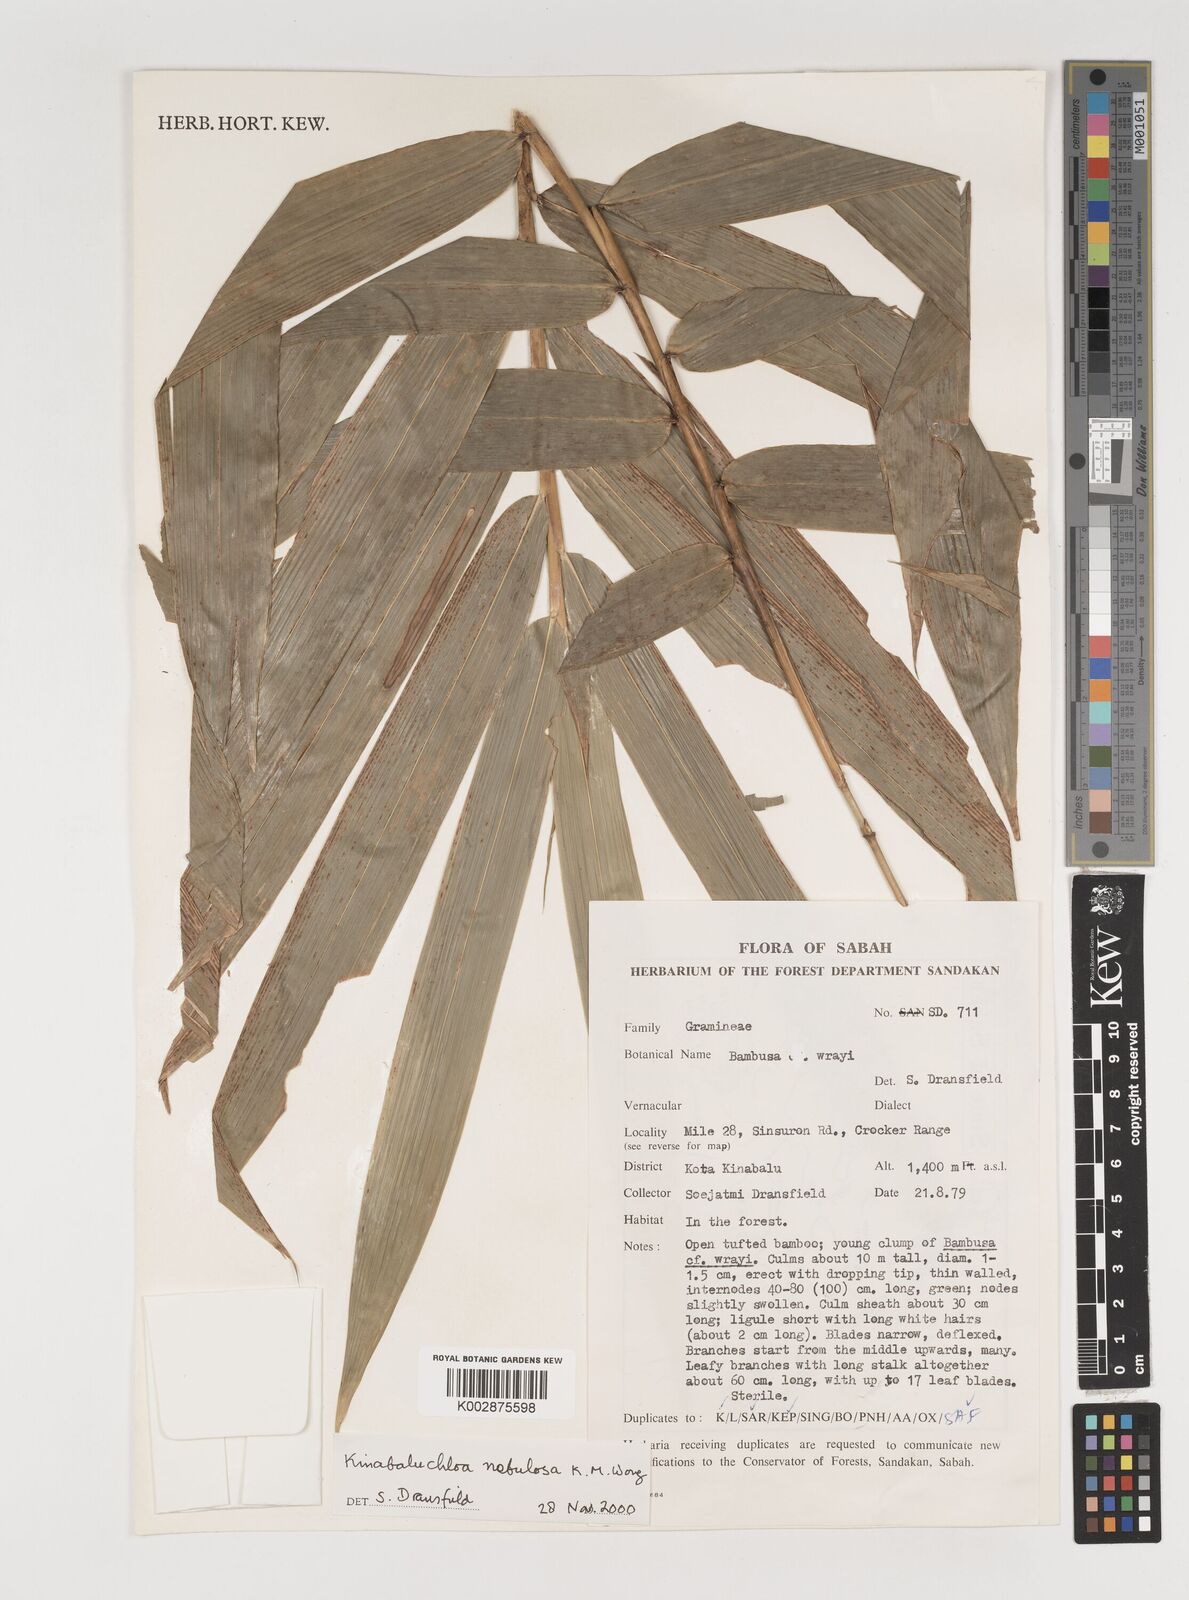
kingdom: Plantae
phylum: Tracheophyta
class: Liliopsida
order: Poales
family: Poaceae
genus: Kinabaluchloa
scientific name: Kinabaluchloa nebulosa
